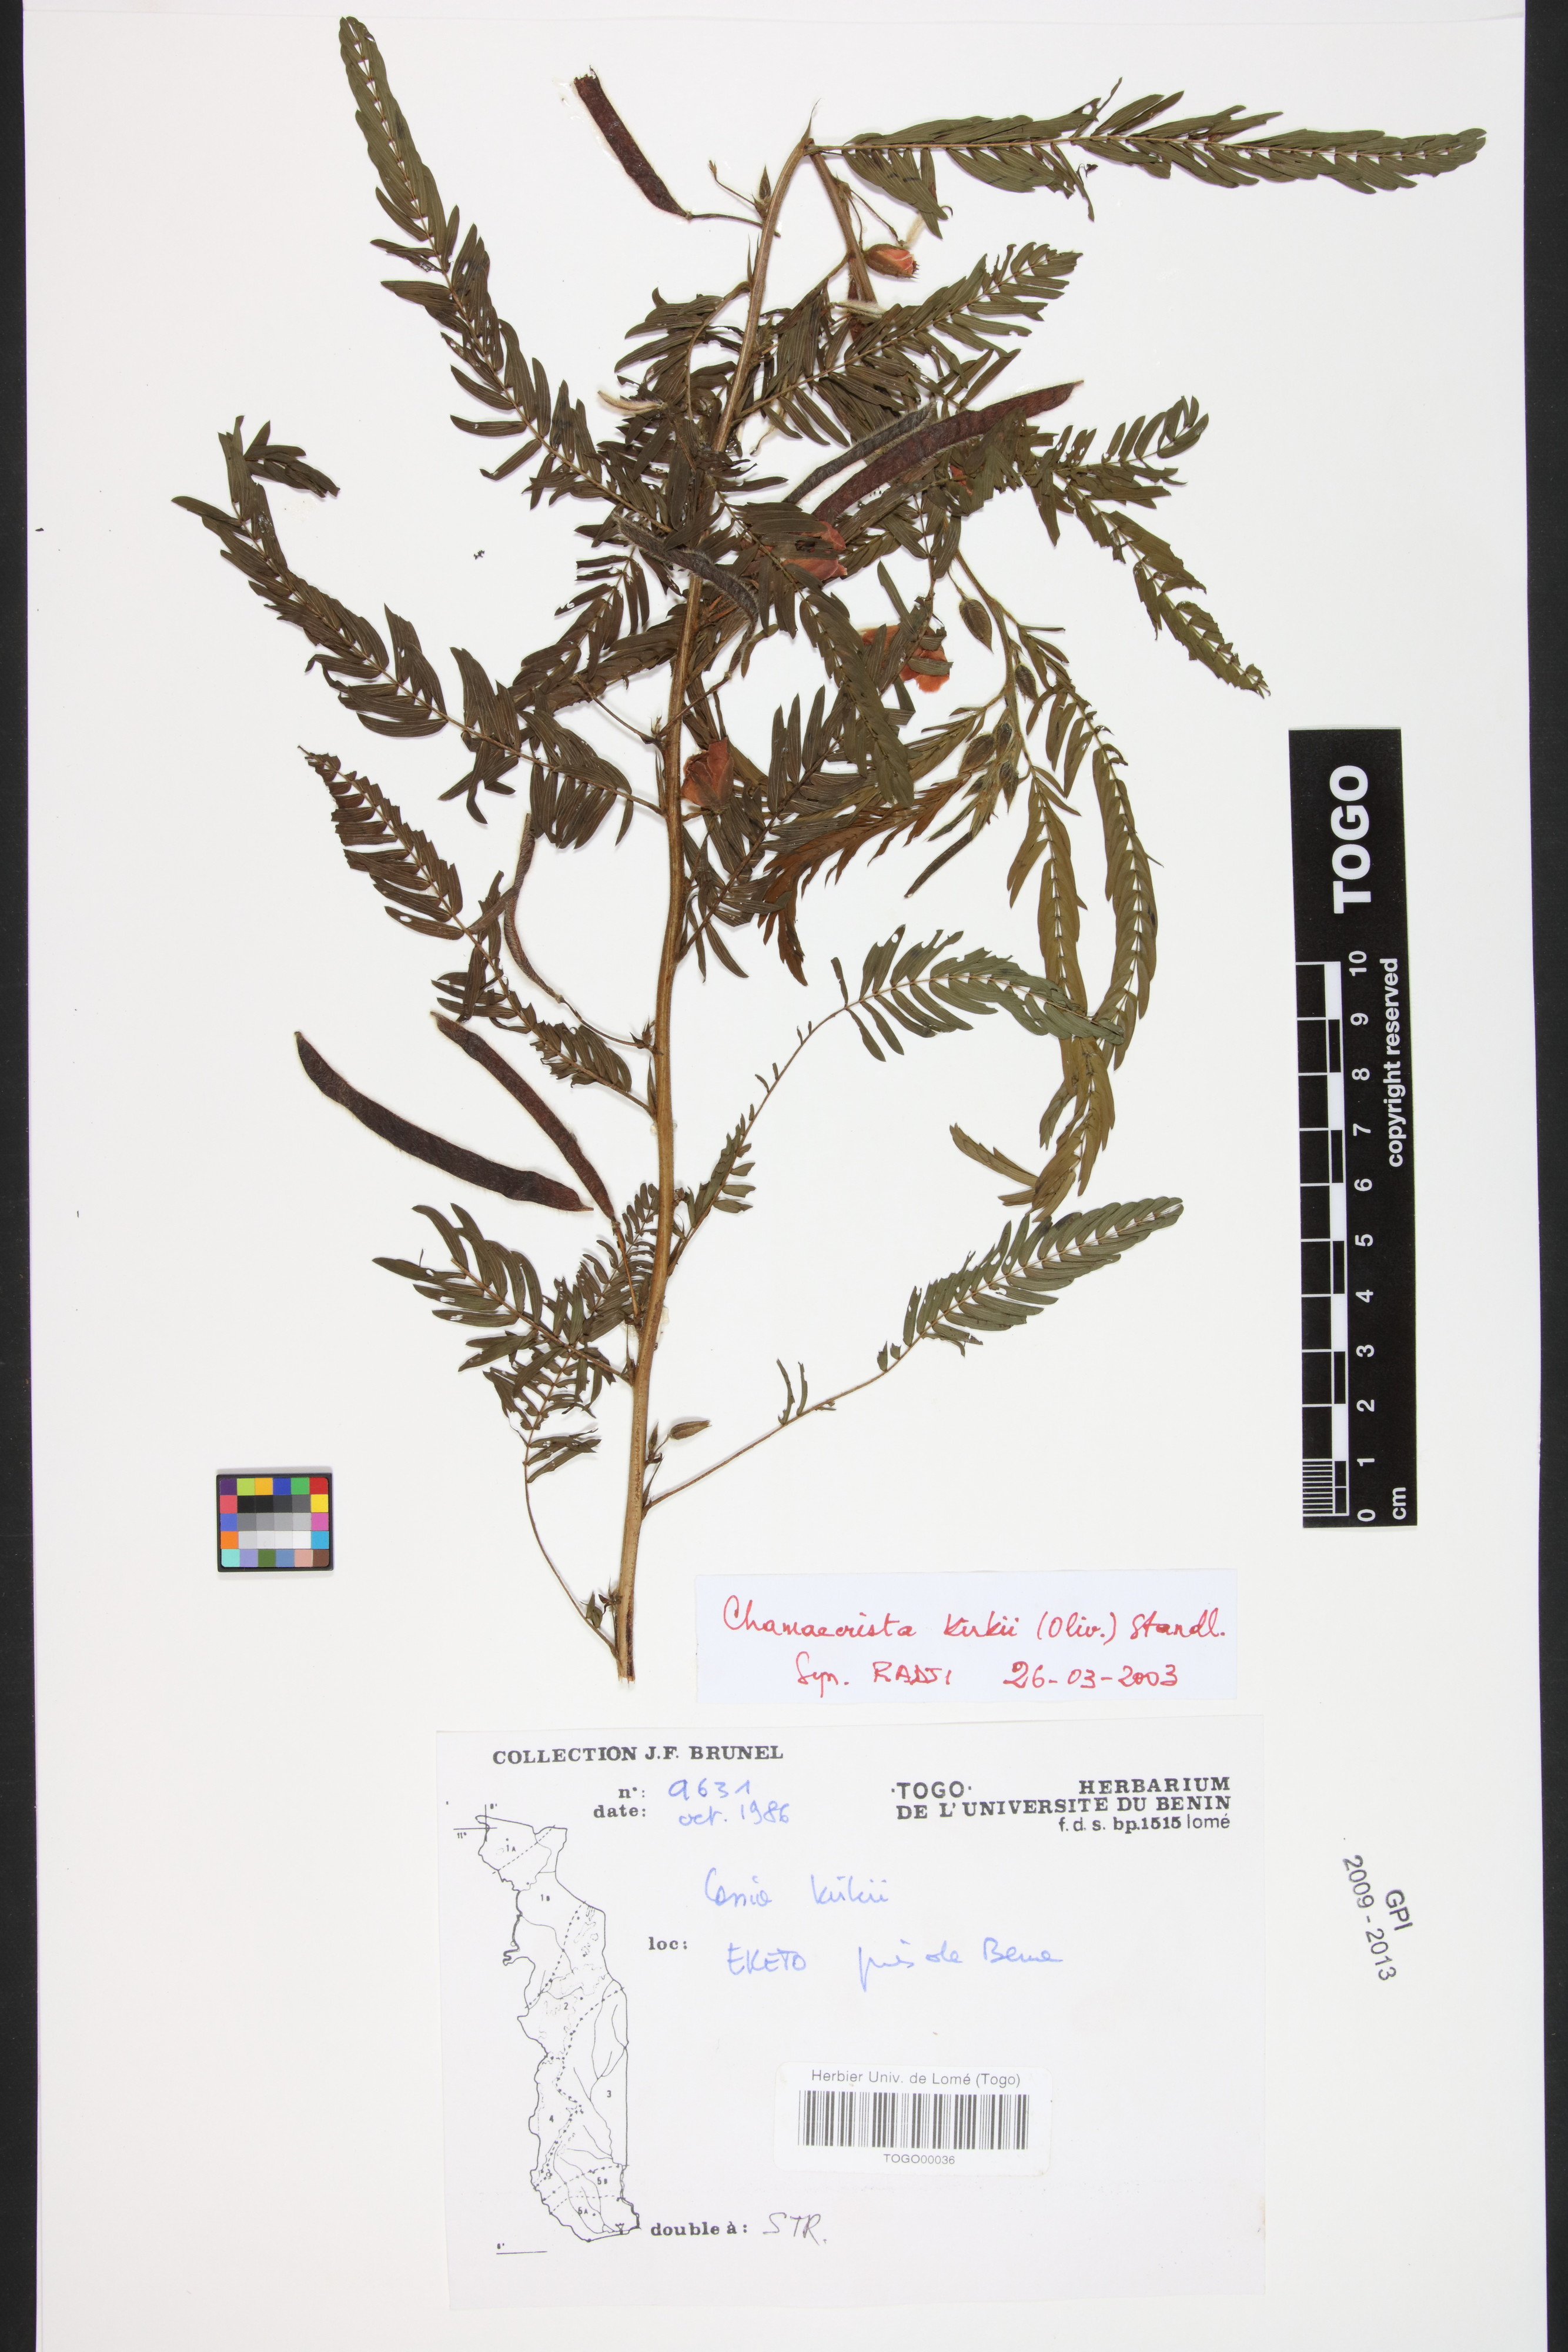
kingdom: Plantae
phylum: Tracheophyta
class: Magnoliopsida
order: Fabales
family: Fabaceae
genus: Chamaecrista
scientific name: Chamaecrista kirkii
